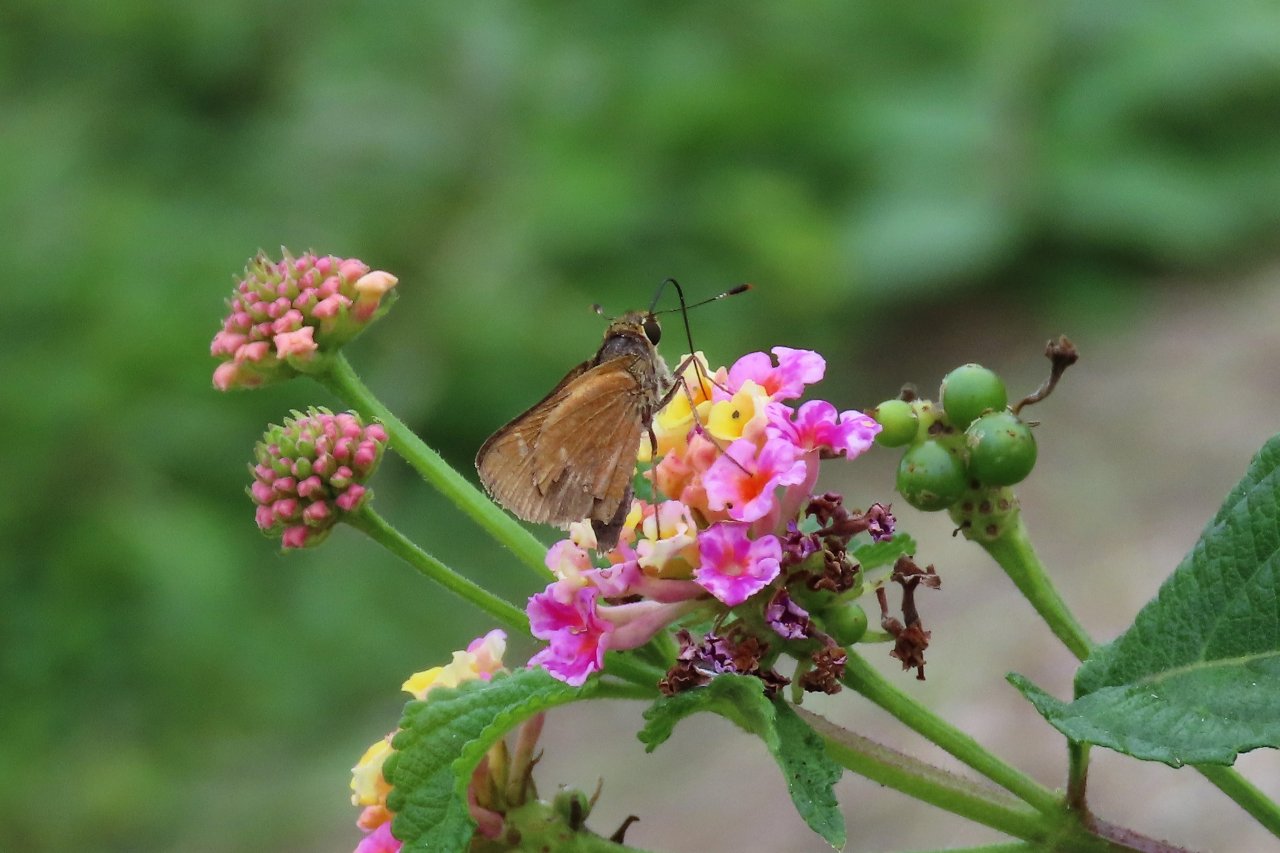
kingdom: Animalia
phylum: Arthropoda
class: Insecta
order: Lepidoptera
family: Hesperiidae
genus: Wallengrenia
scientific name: Wallengrenia otho
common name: Southern Broken-Dash
